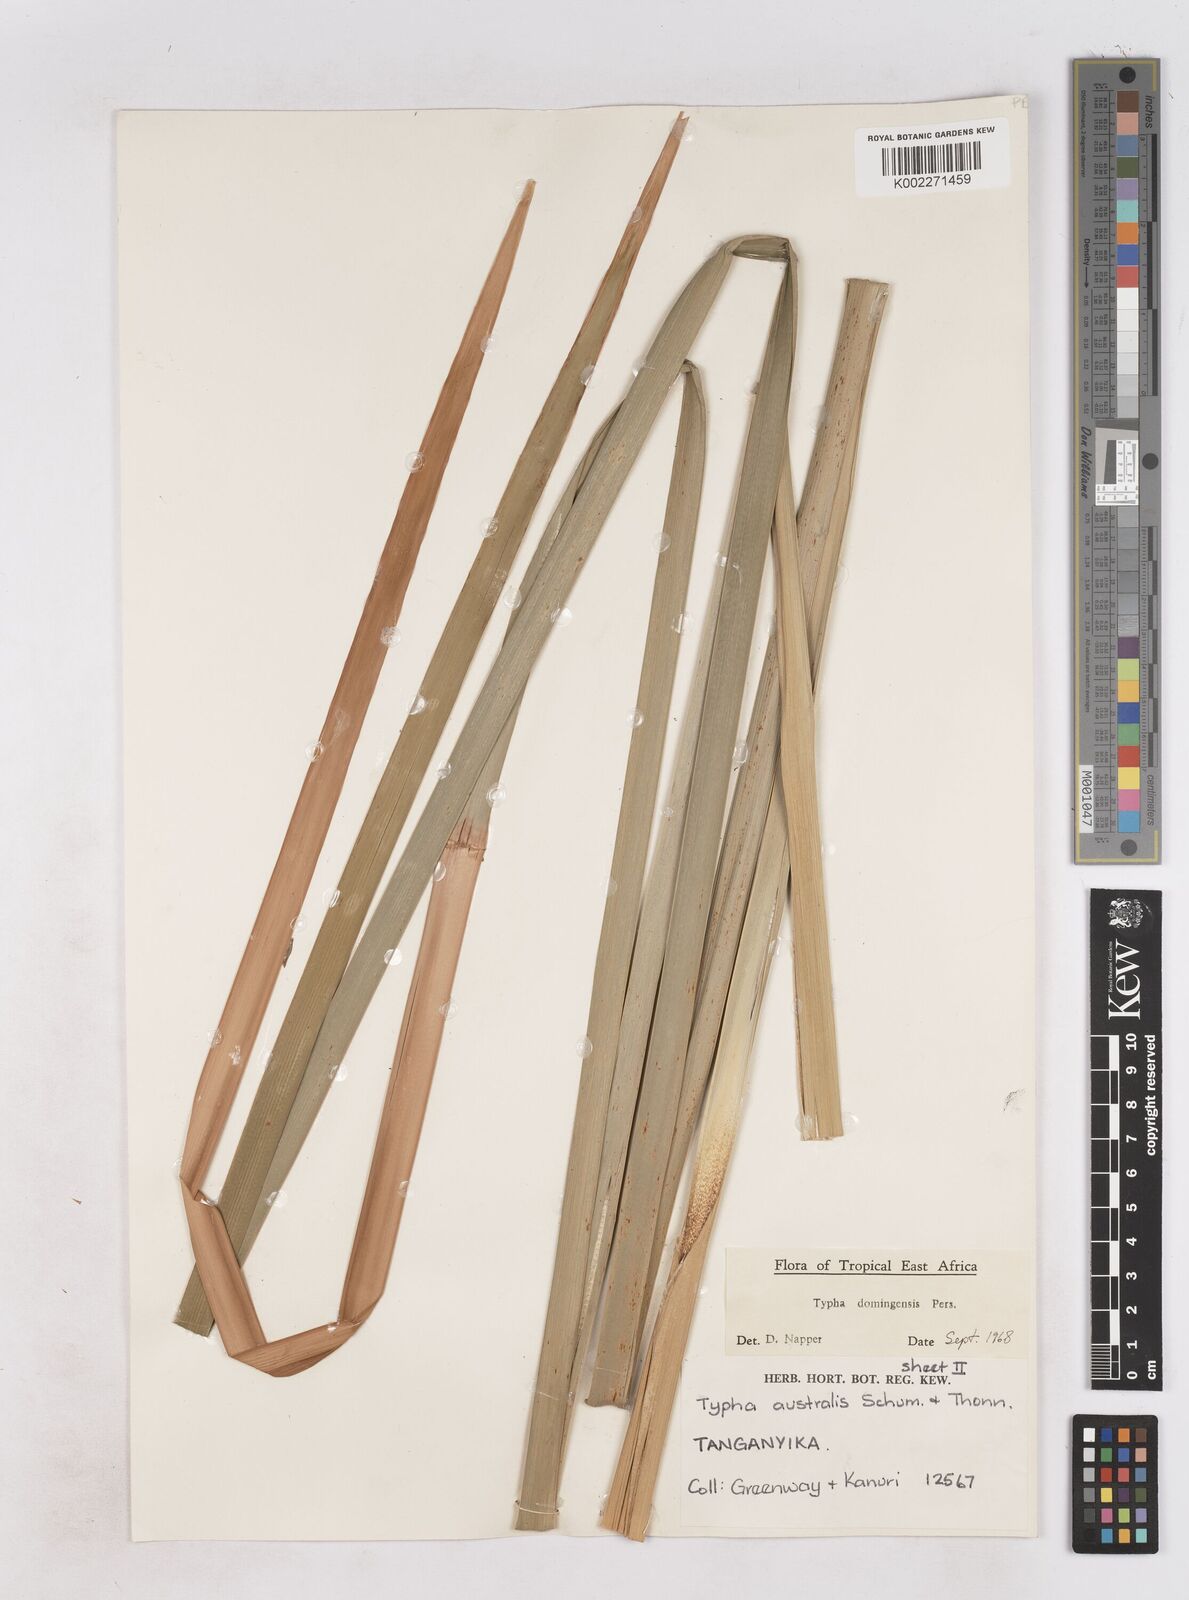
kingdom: Plantae
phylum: Tracheophyta
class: Liliopsida
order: Poales
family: Typhaceae
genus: Typha
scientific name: Typha domingensis
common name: Southern cattail
